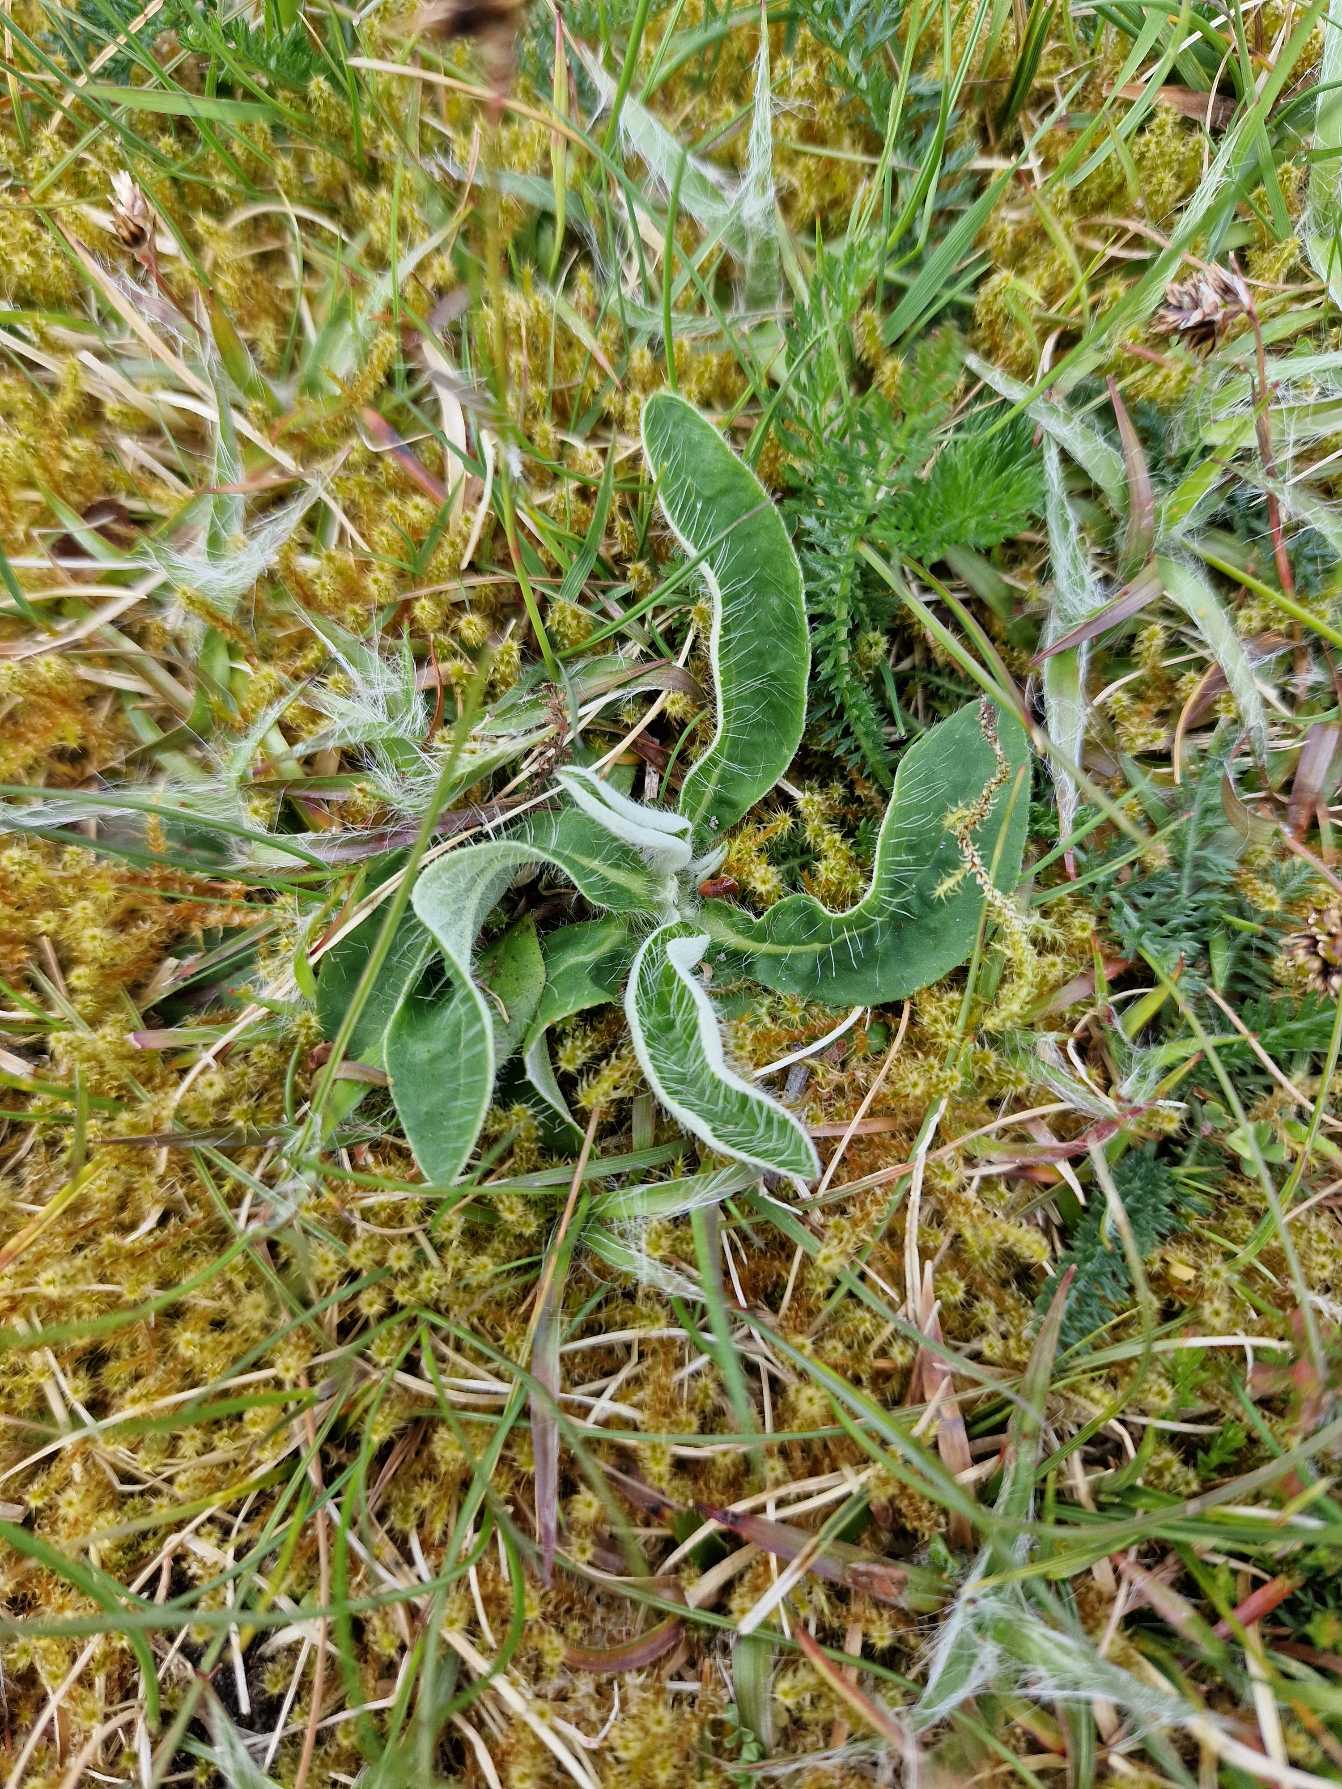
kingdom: Plantae
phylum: Tracheophyta
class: Magnoliopsida
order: Asterales
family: Asteraceae
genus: Pilosella
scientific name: Pilosella officinarum
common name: Håret høgeurt
